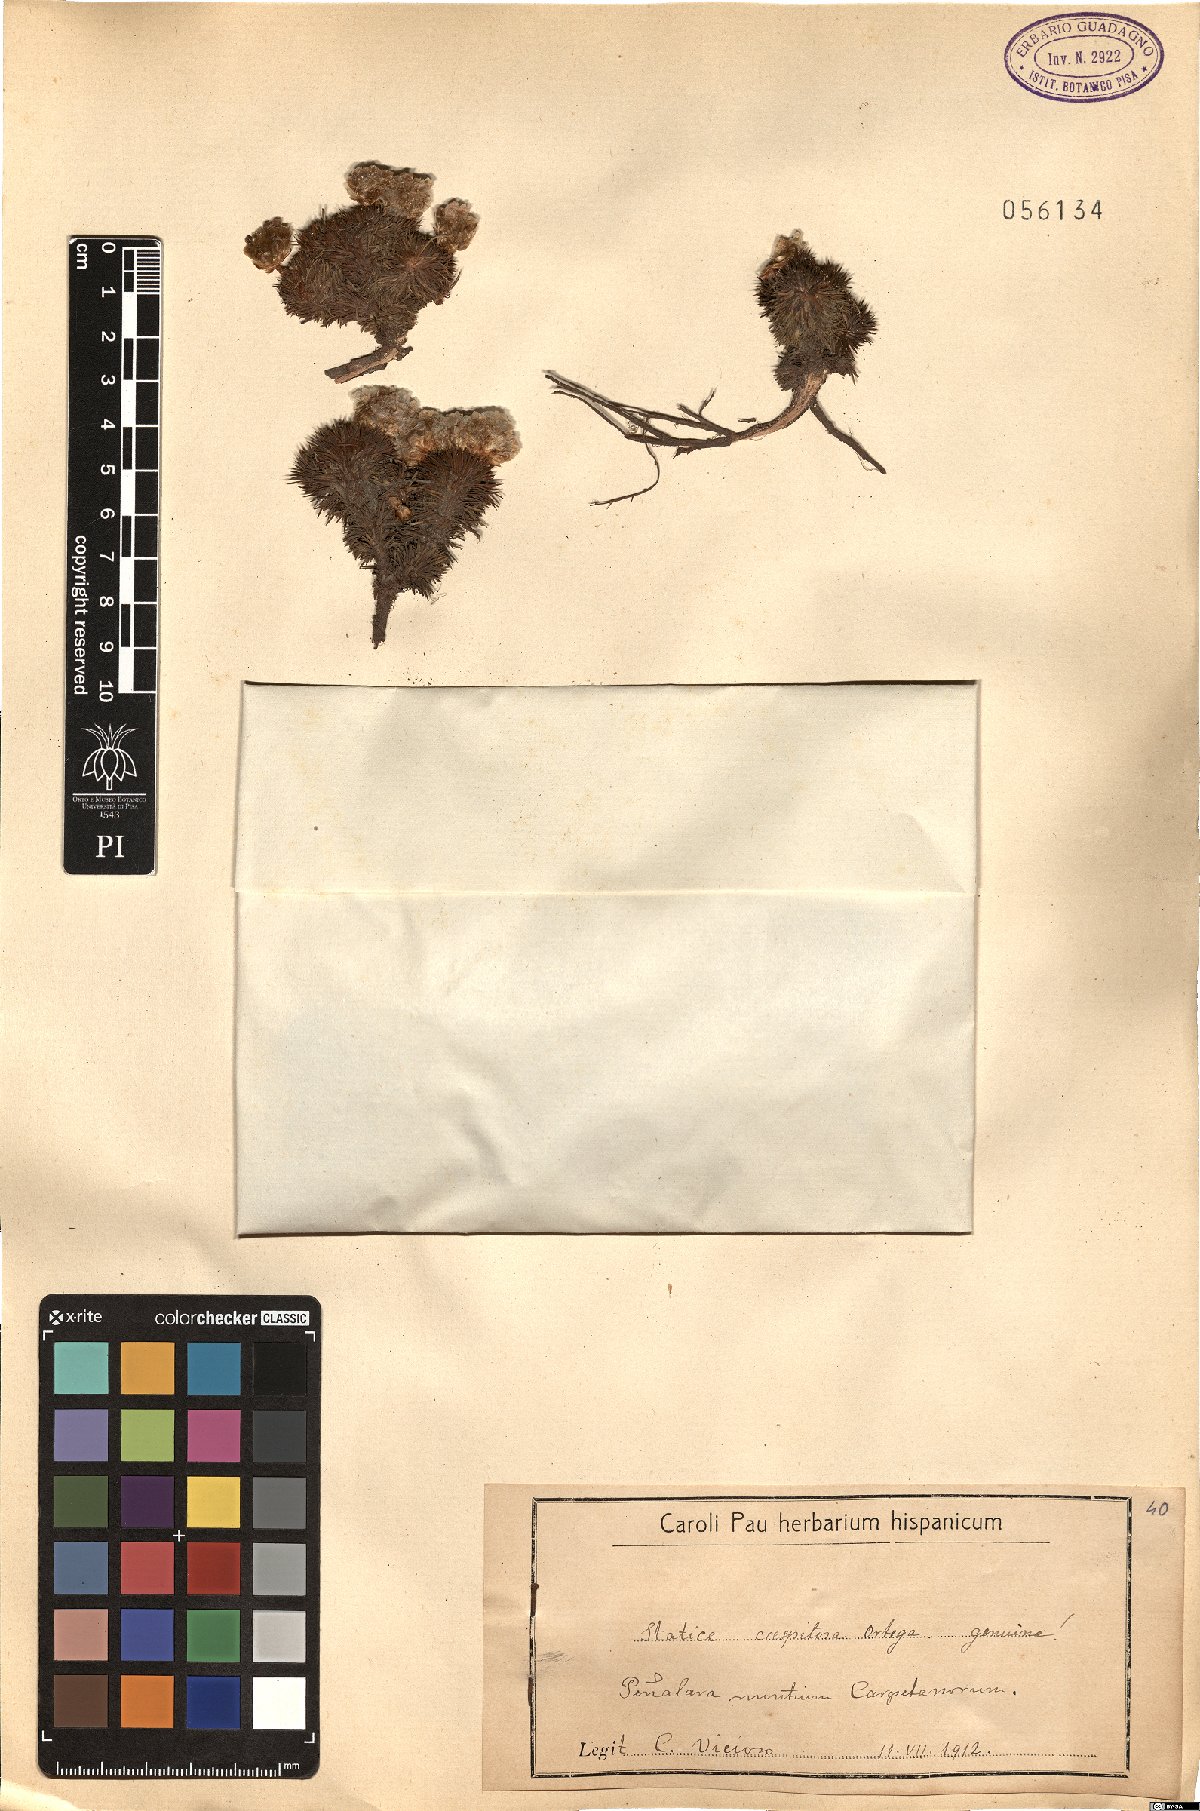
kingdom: Plantae
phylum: Tracheophyta
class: Magnoliopsida
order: Caryophyllales
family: Plumbaginaceae
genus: Armeria
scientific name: Armeria caespitosa
